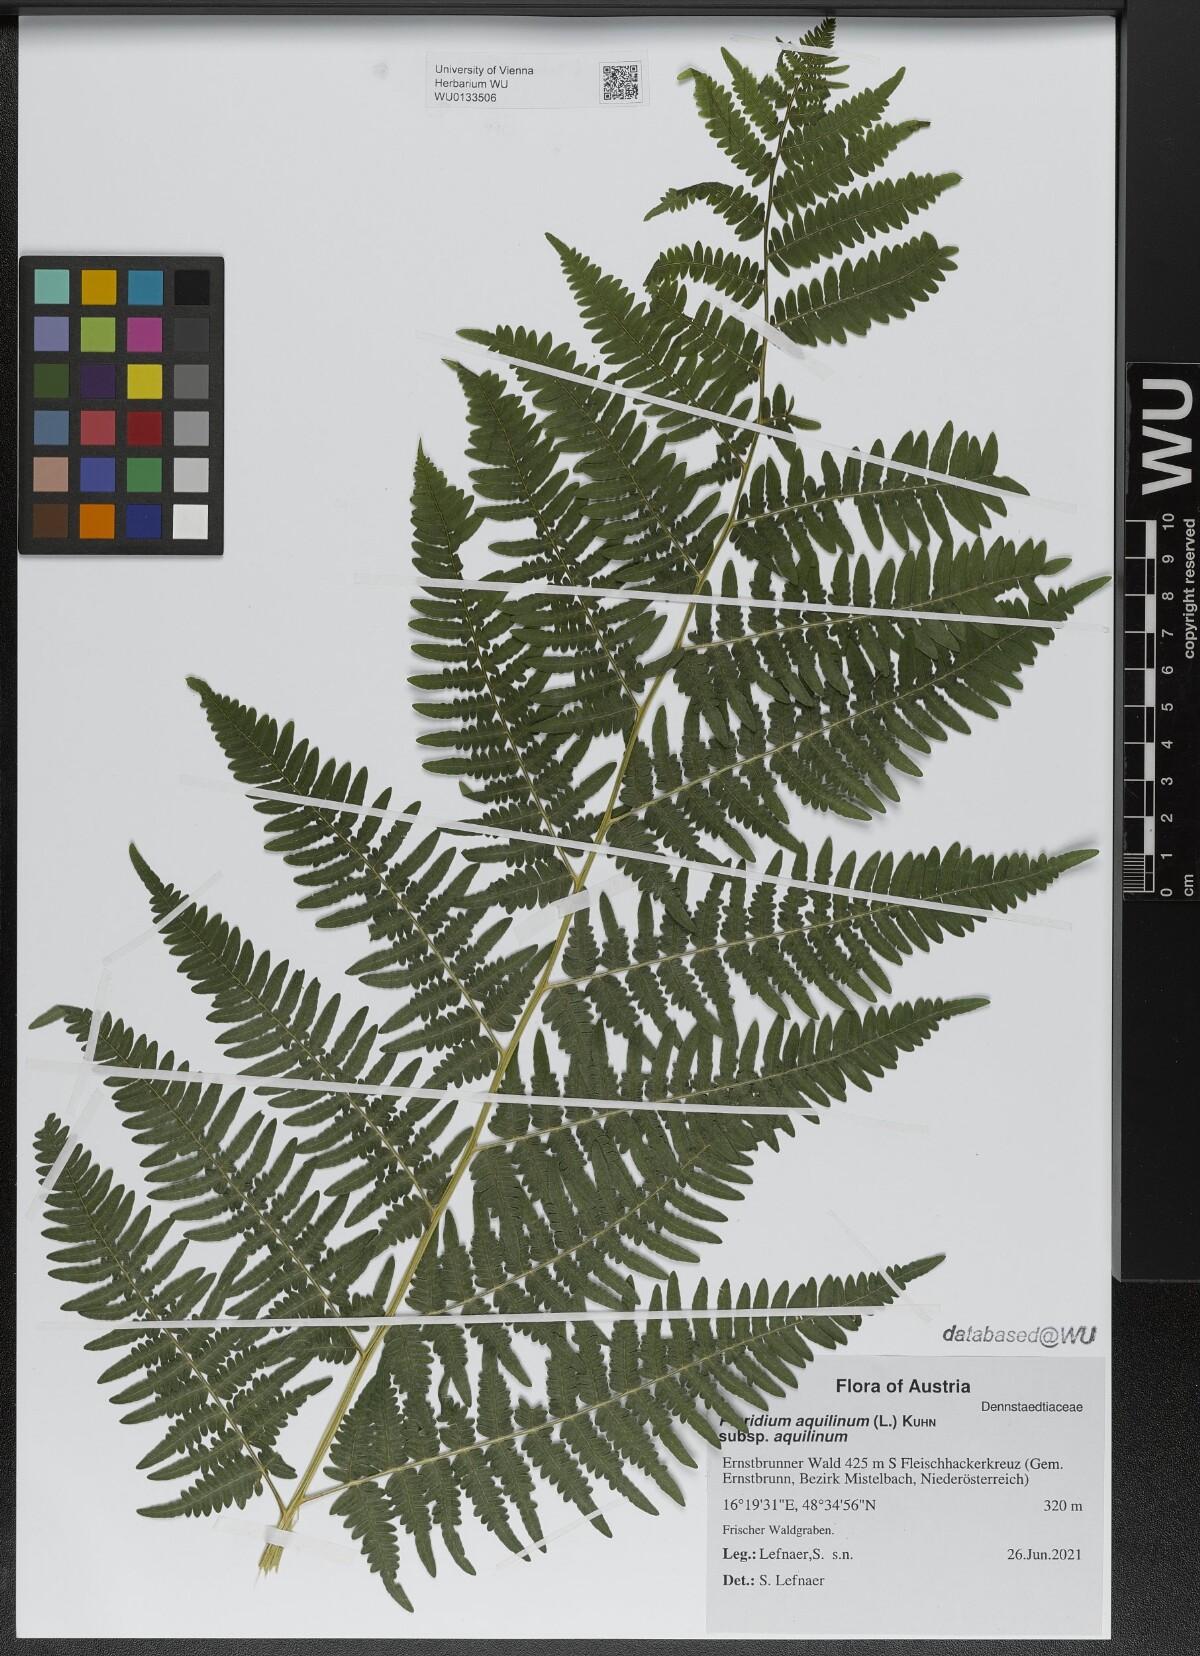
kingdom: Plantae
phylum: Tracheophyta
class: Polypodiopsida
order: Polypodiales
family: Dennstaedtiaceae
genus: Pteridium
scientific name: Pteridium aquilinum
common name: Bracken
